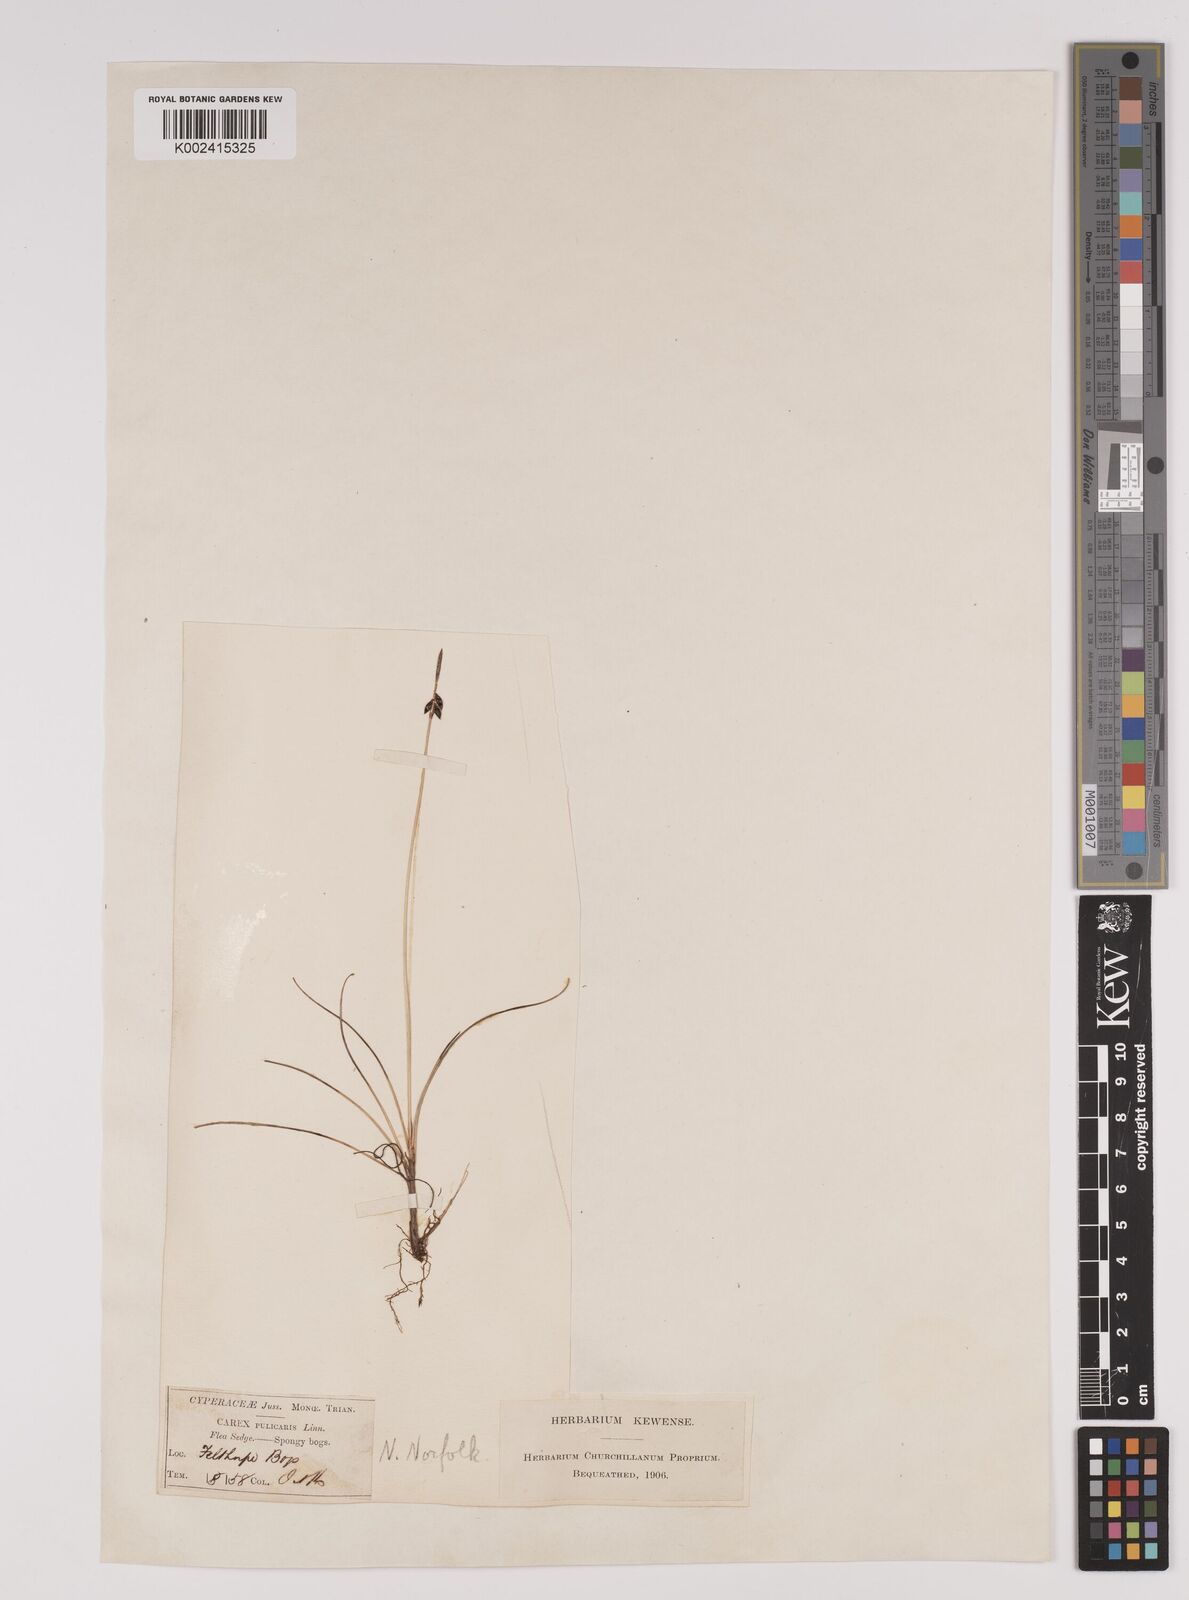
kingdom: Plantae
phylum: Tracheophyta
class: Liliopsida
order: Poales
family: Cyperaceae
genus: Carex
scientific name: Carex pulicaris
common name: Flea sedge
